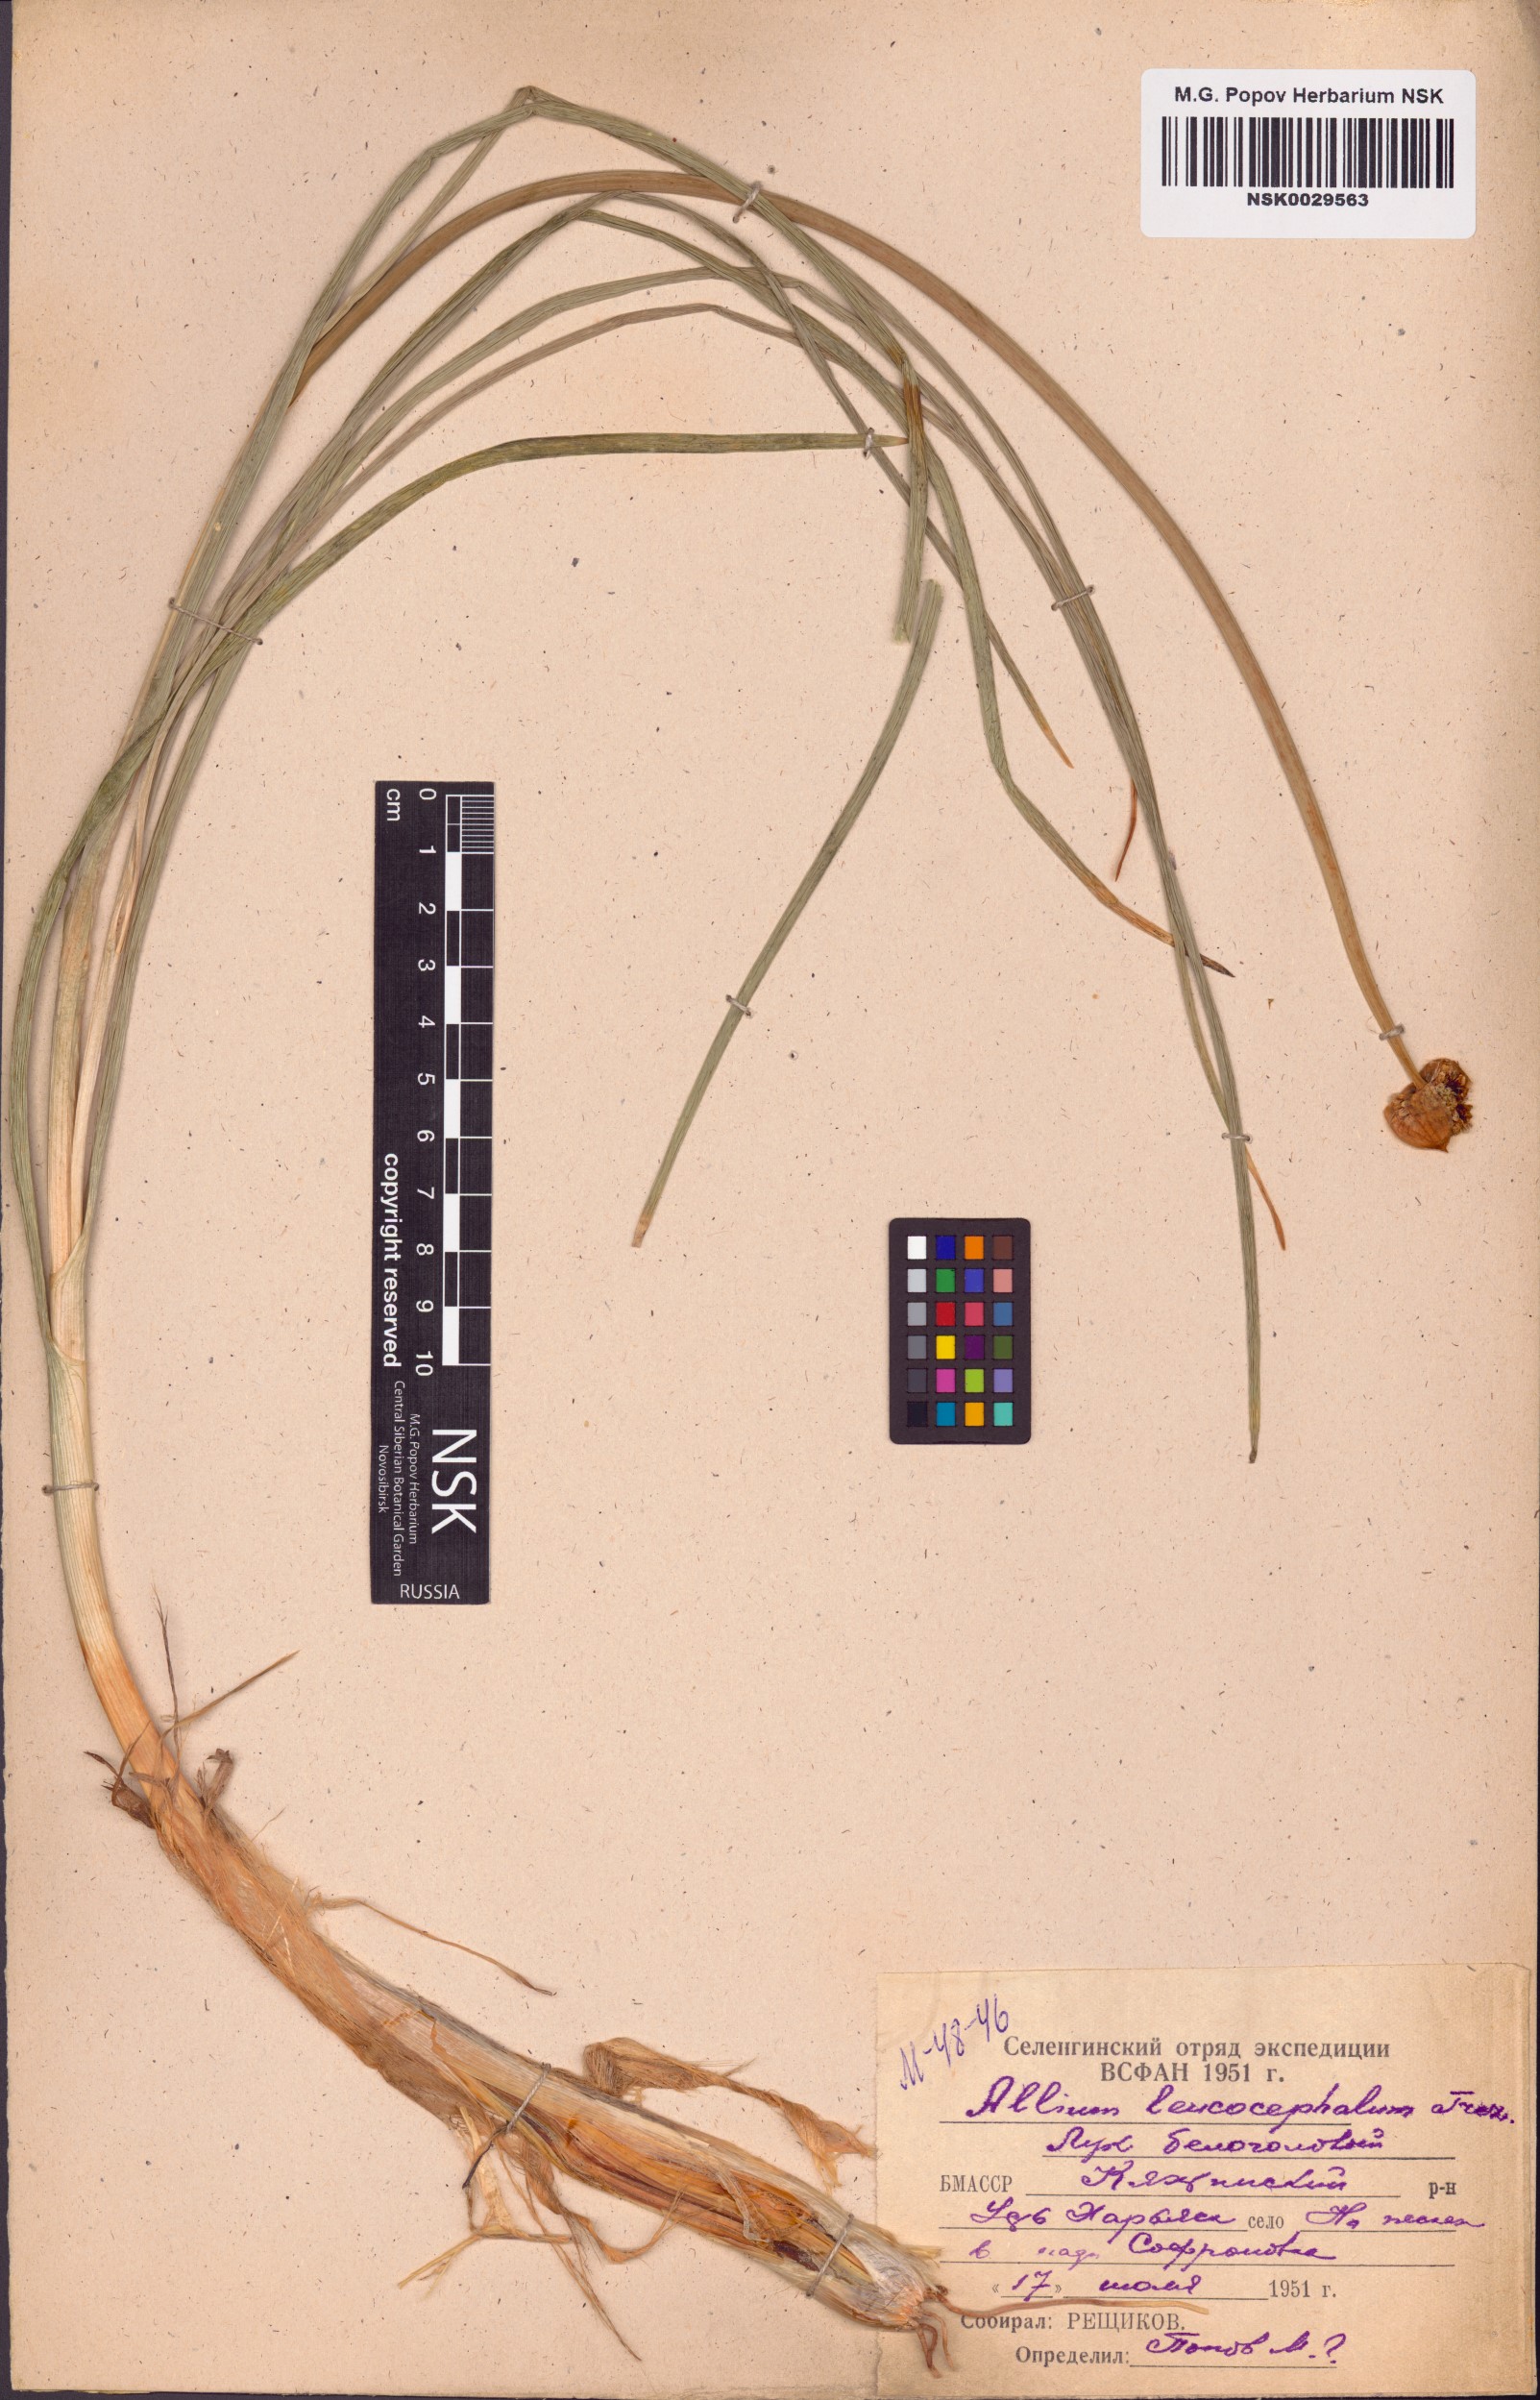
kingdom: Plantae
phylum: Tracheophyta
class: Liliopsida
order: Asparagales
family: Amaryllidaceae
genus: Allium
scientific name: Allium leucocephalum
